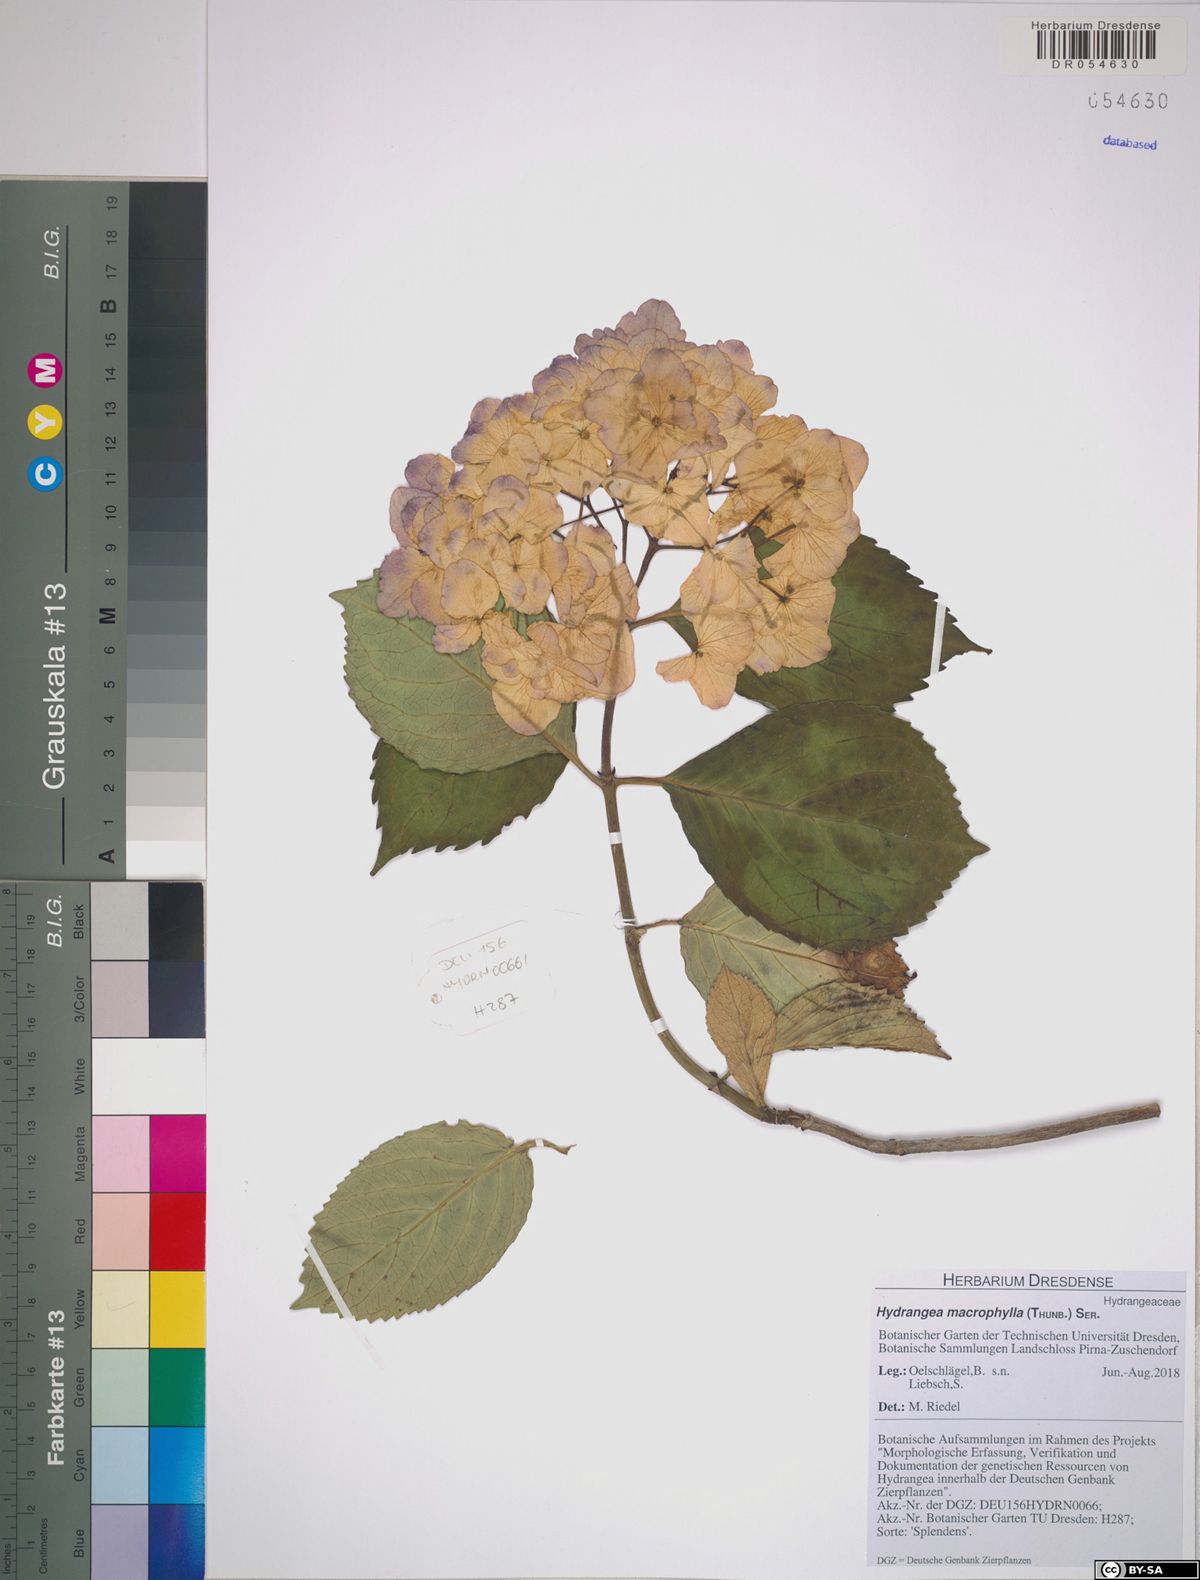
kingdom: Plantae
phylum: Tracheophyta
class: Magnoliopsida
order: Cornales
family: Hydrangeaceae
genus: Hydrangea
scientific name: Hydrangea macrophylla
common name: Hydrangea
